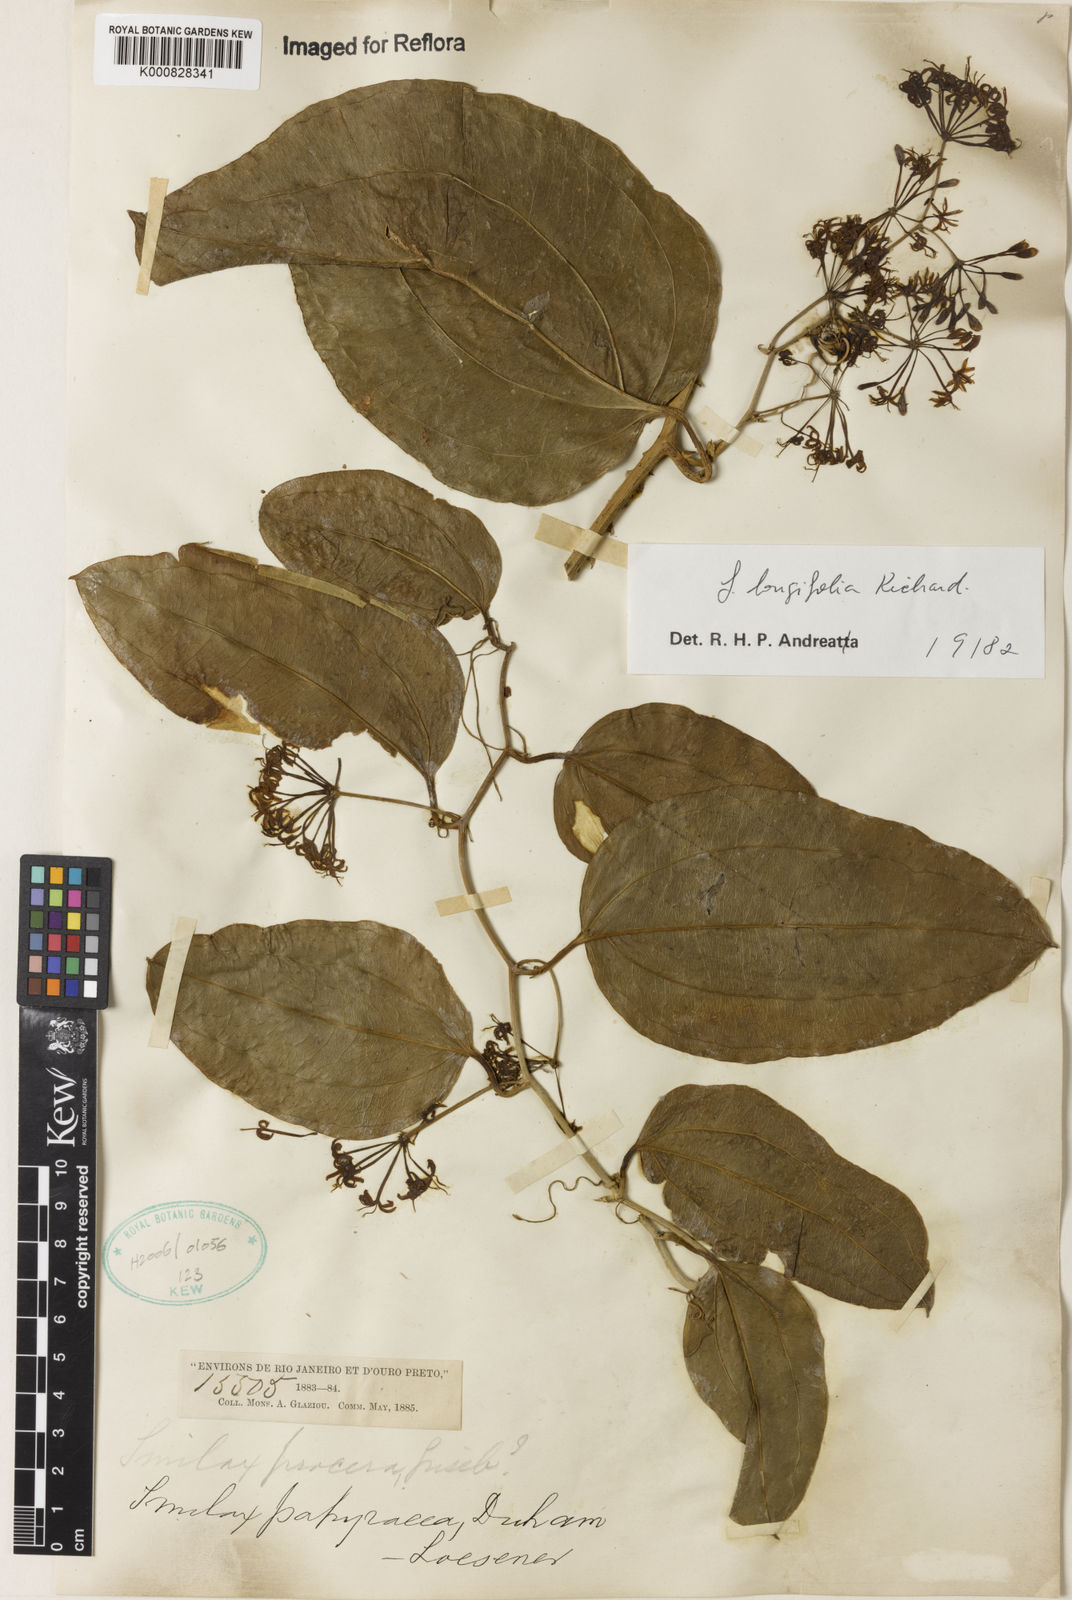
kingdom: Plantae
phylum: Tracheophyta
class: Liliopsida
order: Liliales
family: Smilacaceae
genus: Smilax
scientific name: Smilax longifolia
